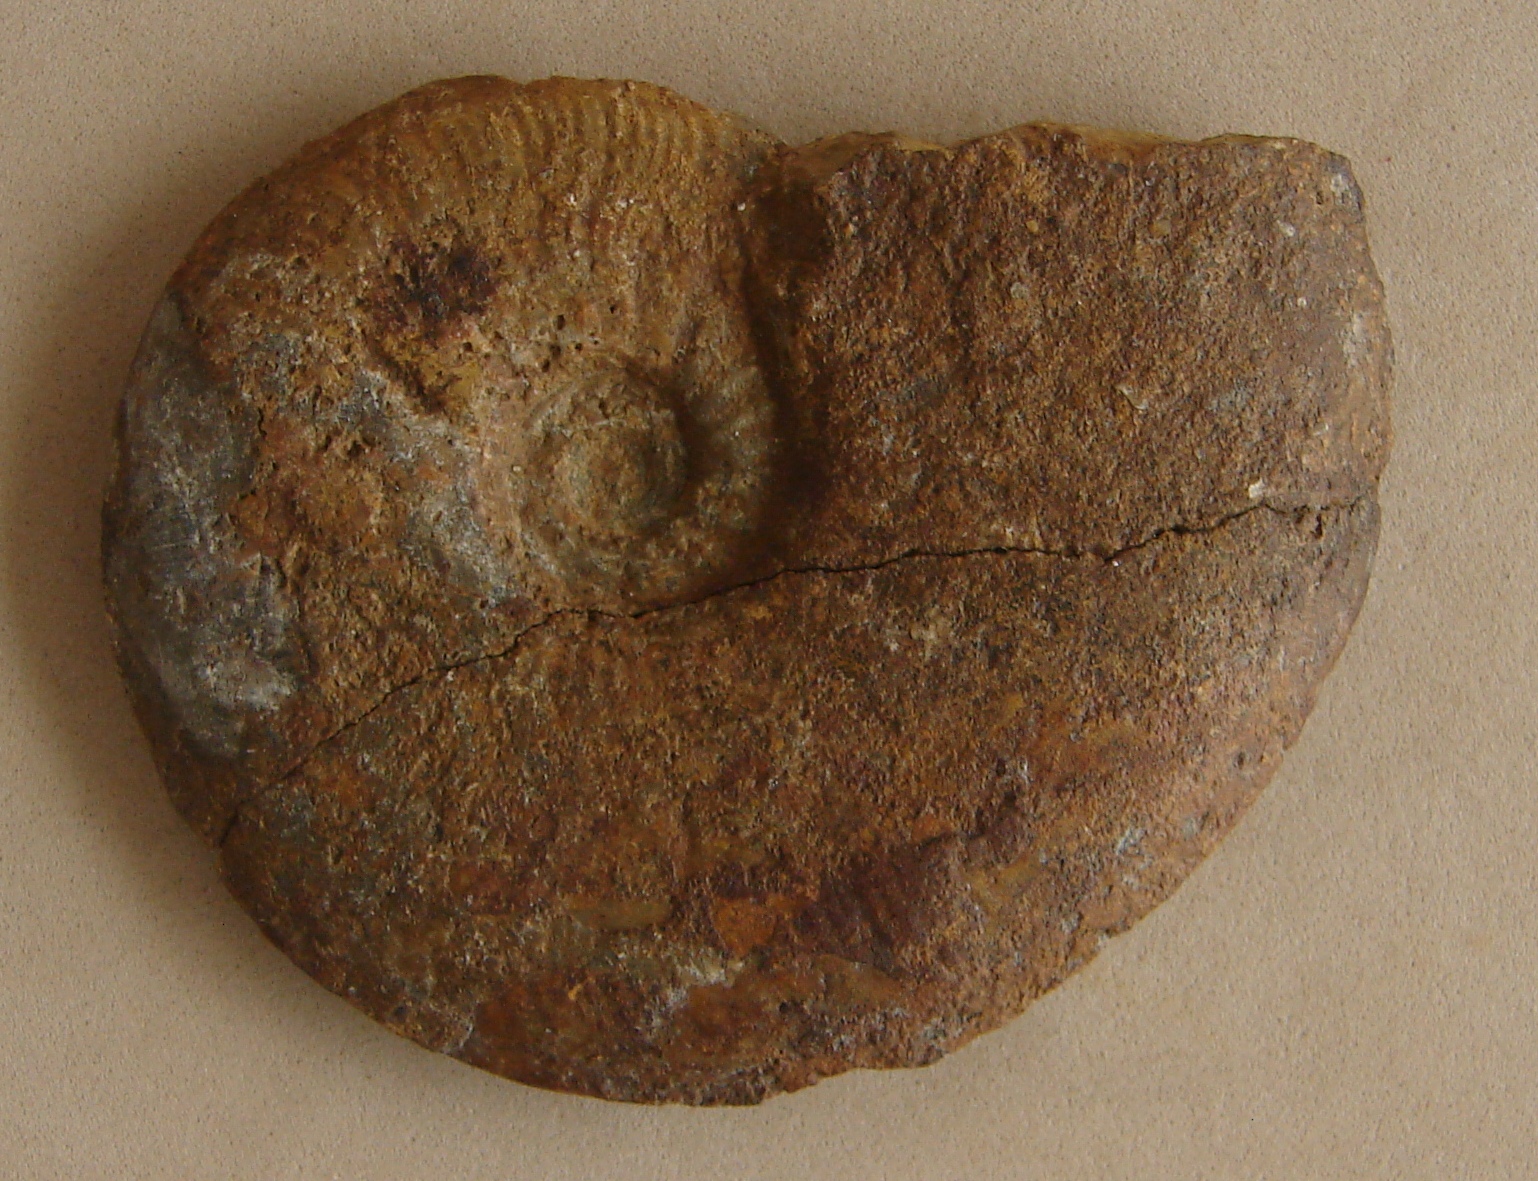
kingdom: Animalia
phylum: Mollusca
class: Cephalopoda
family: Hildoceratidae
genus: Pleydellia
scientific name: Pleydellia misera
